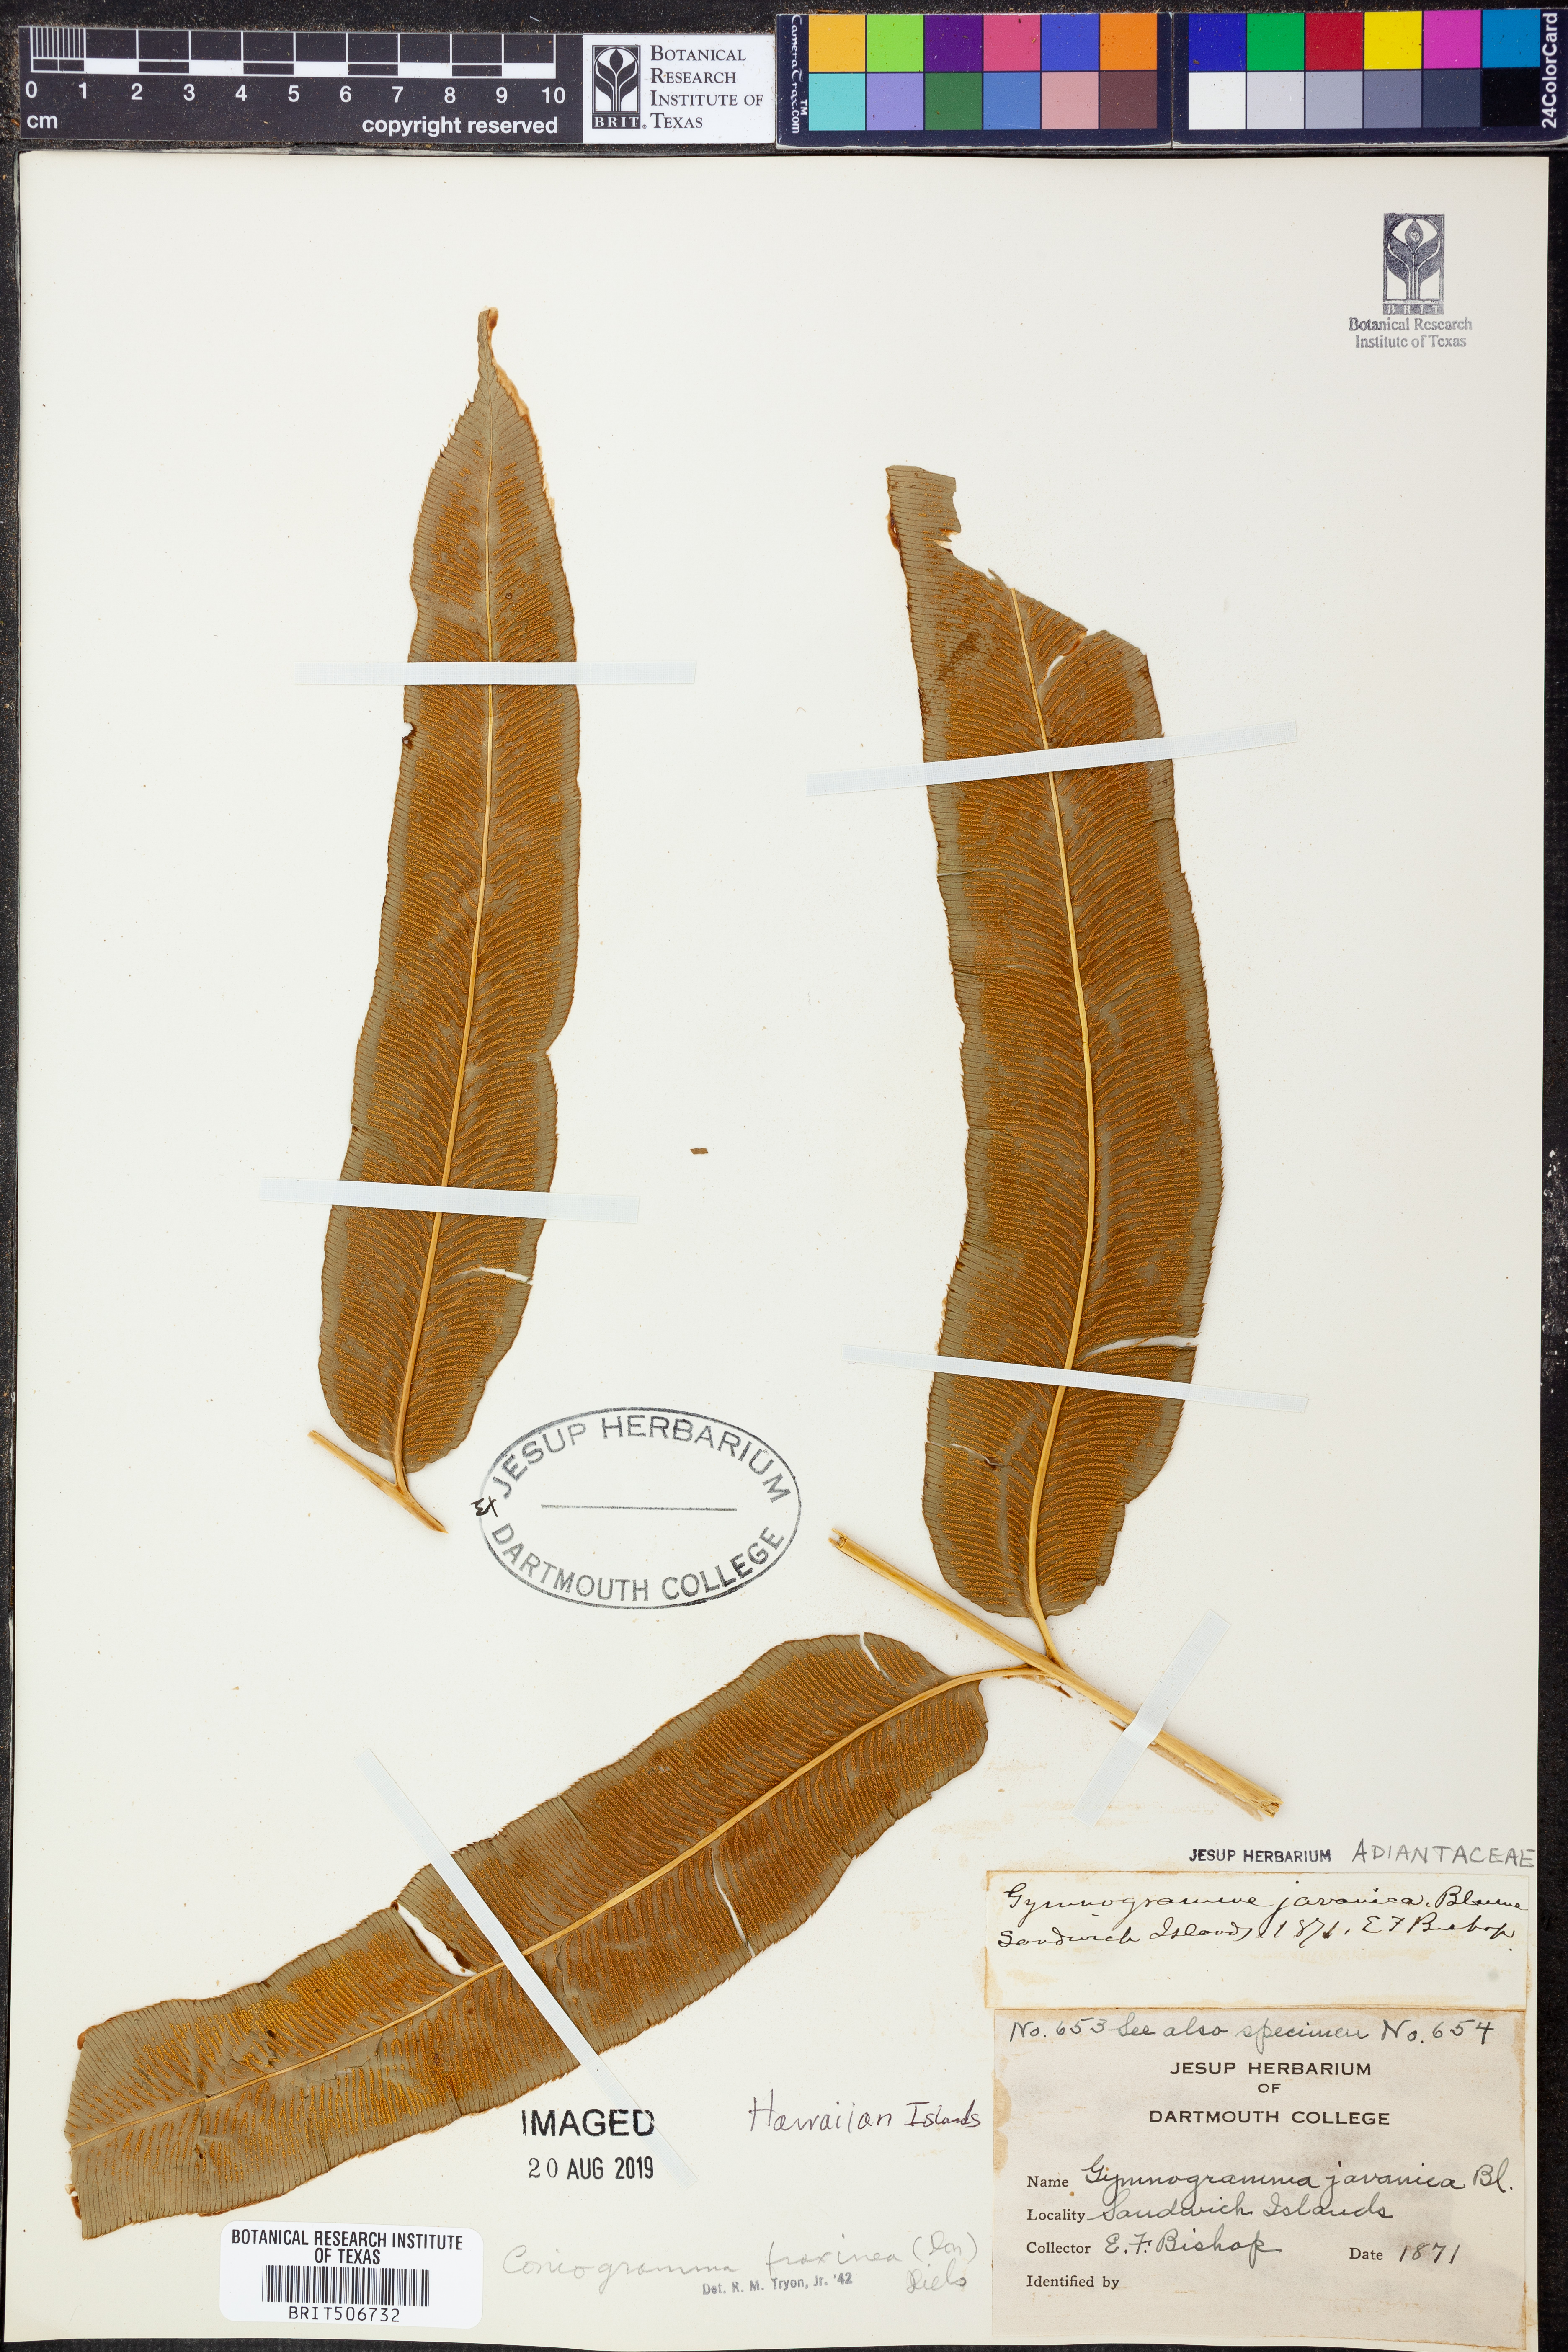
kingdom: Plantae
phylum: Tracheophyta
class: Polypodiopsida
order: Polypodiales
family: Pteridaceae
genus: Coniogramme
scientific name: Coniogramme fraxinea
